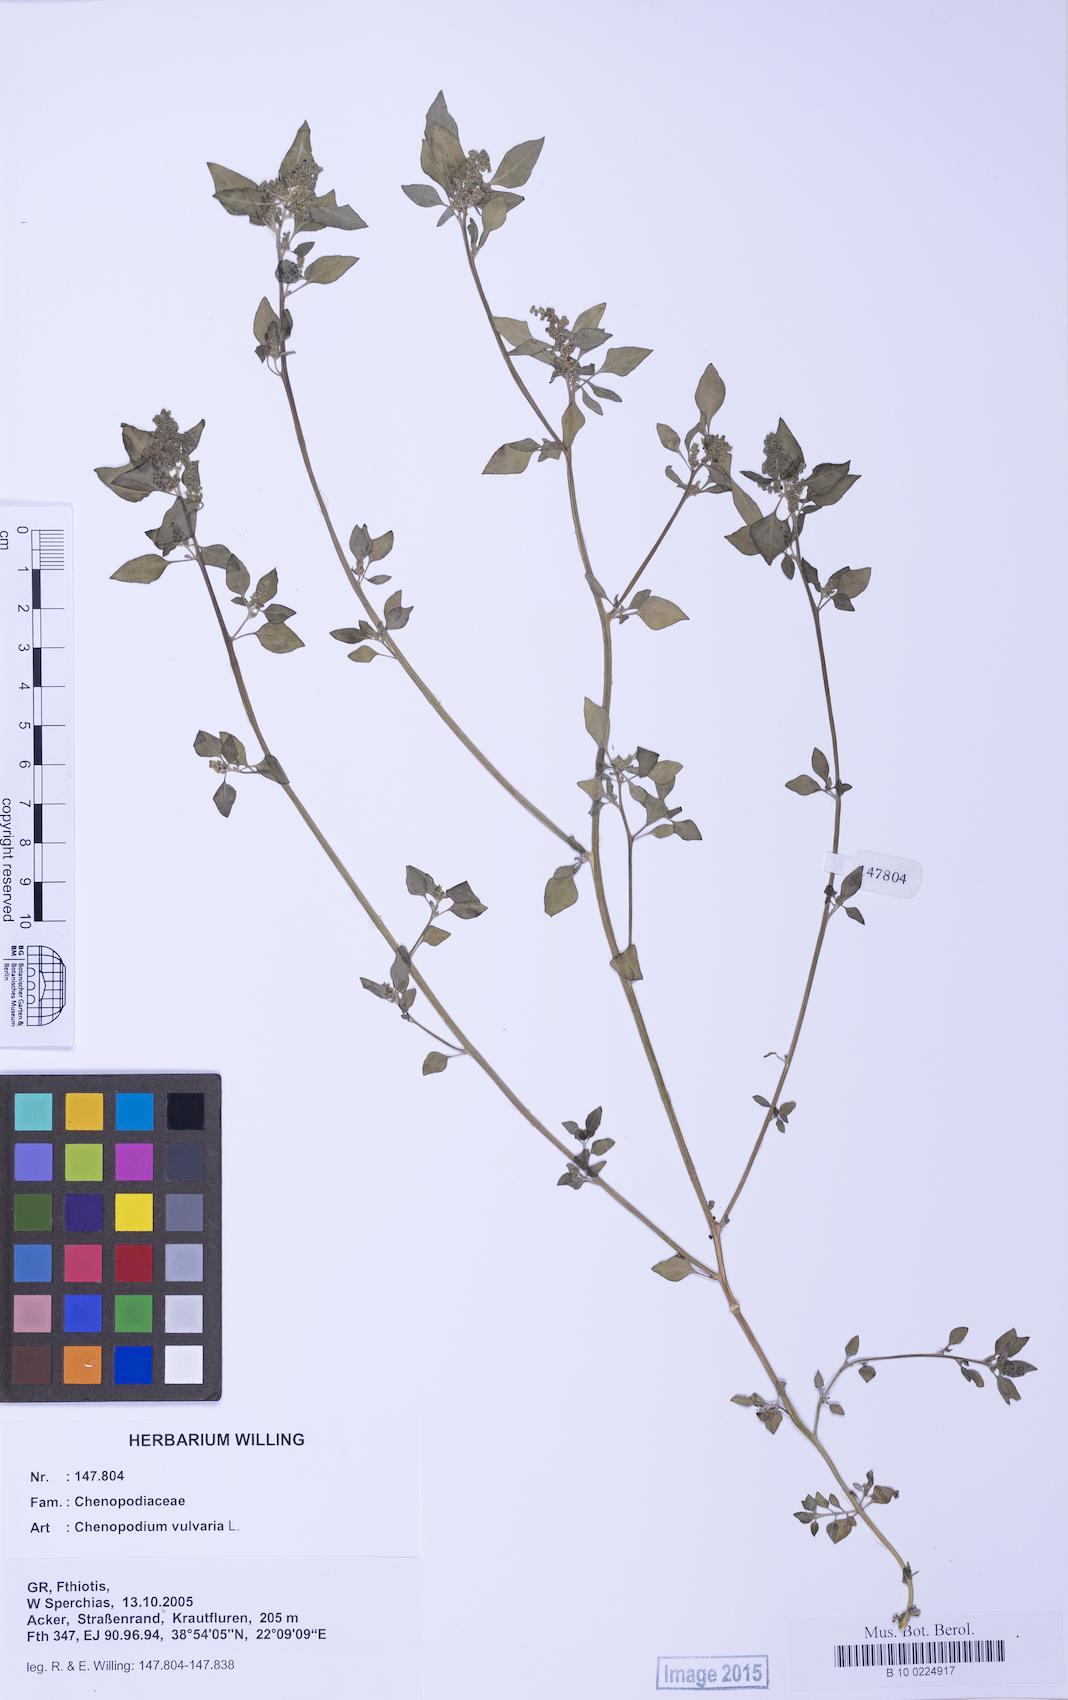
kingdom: Plantae
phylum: Tracheophyta
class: Magnoliopsida
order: Caryophyllales
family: Amaranthaceae
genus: Chenopodium
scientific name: Chenopodium vulvaria
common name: Stinking goosefoot
